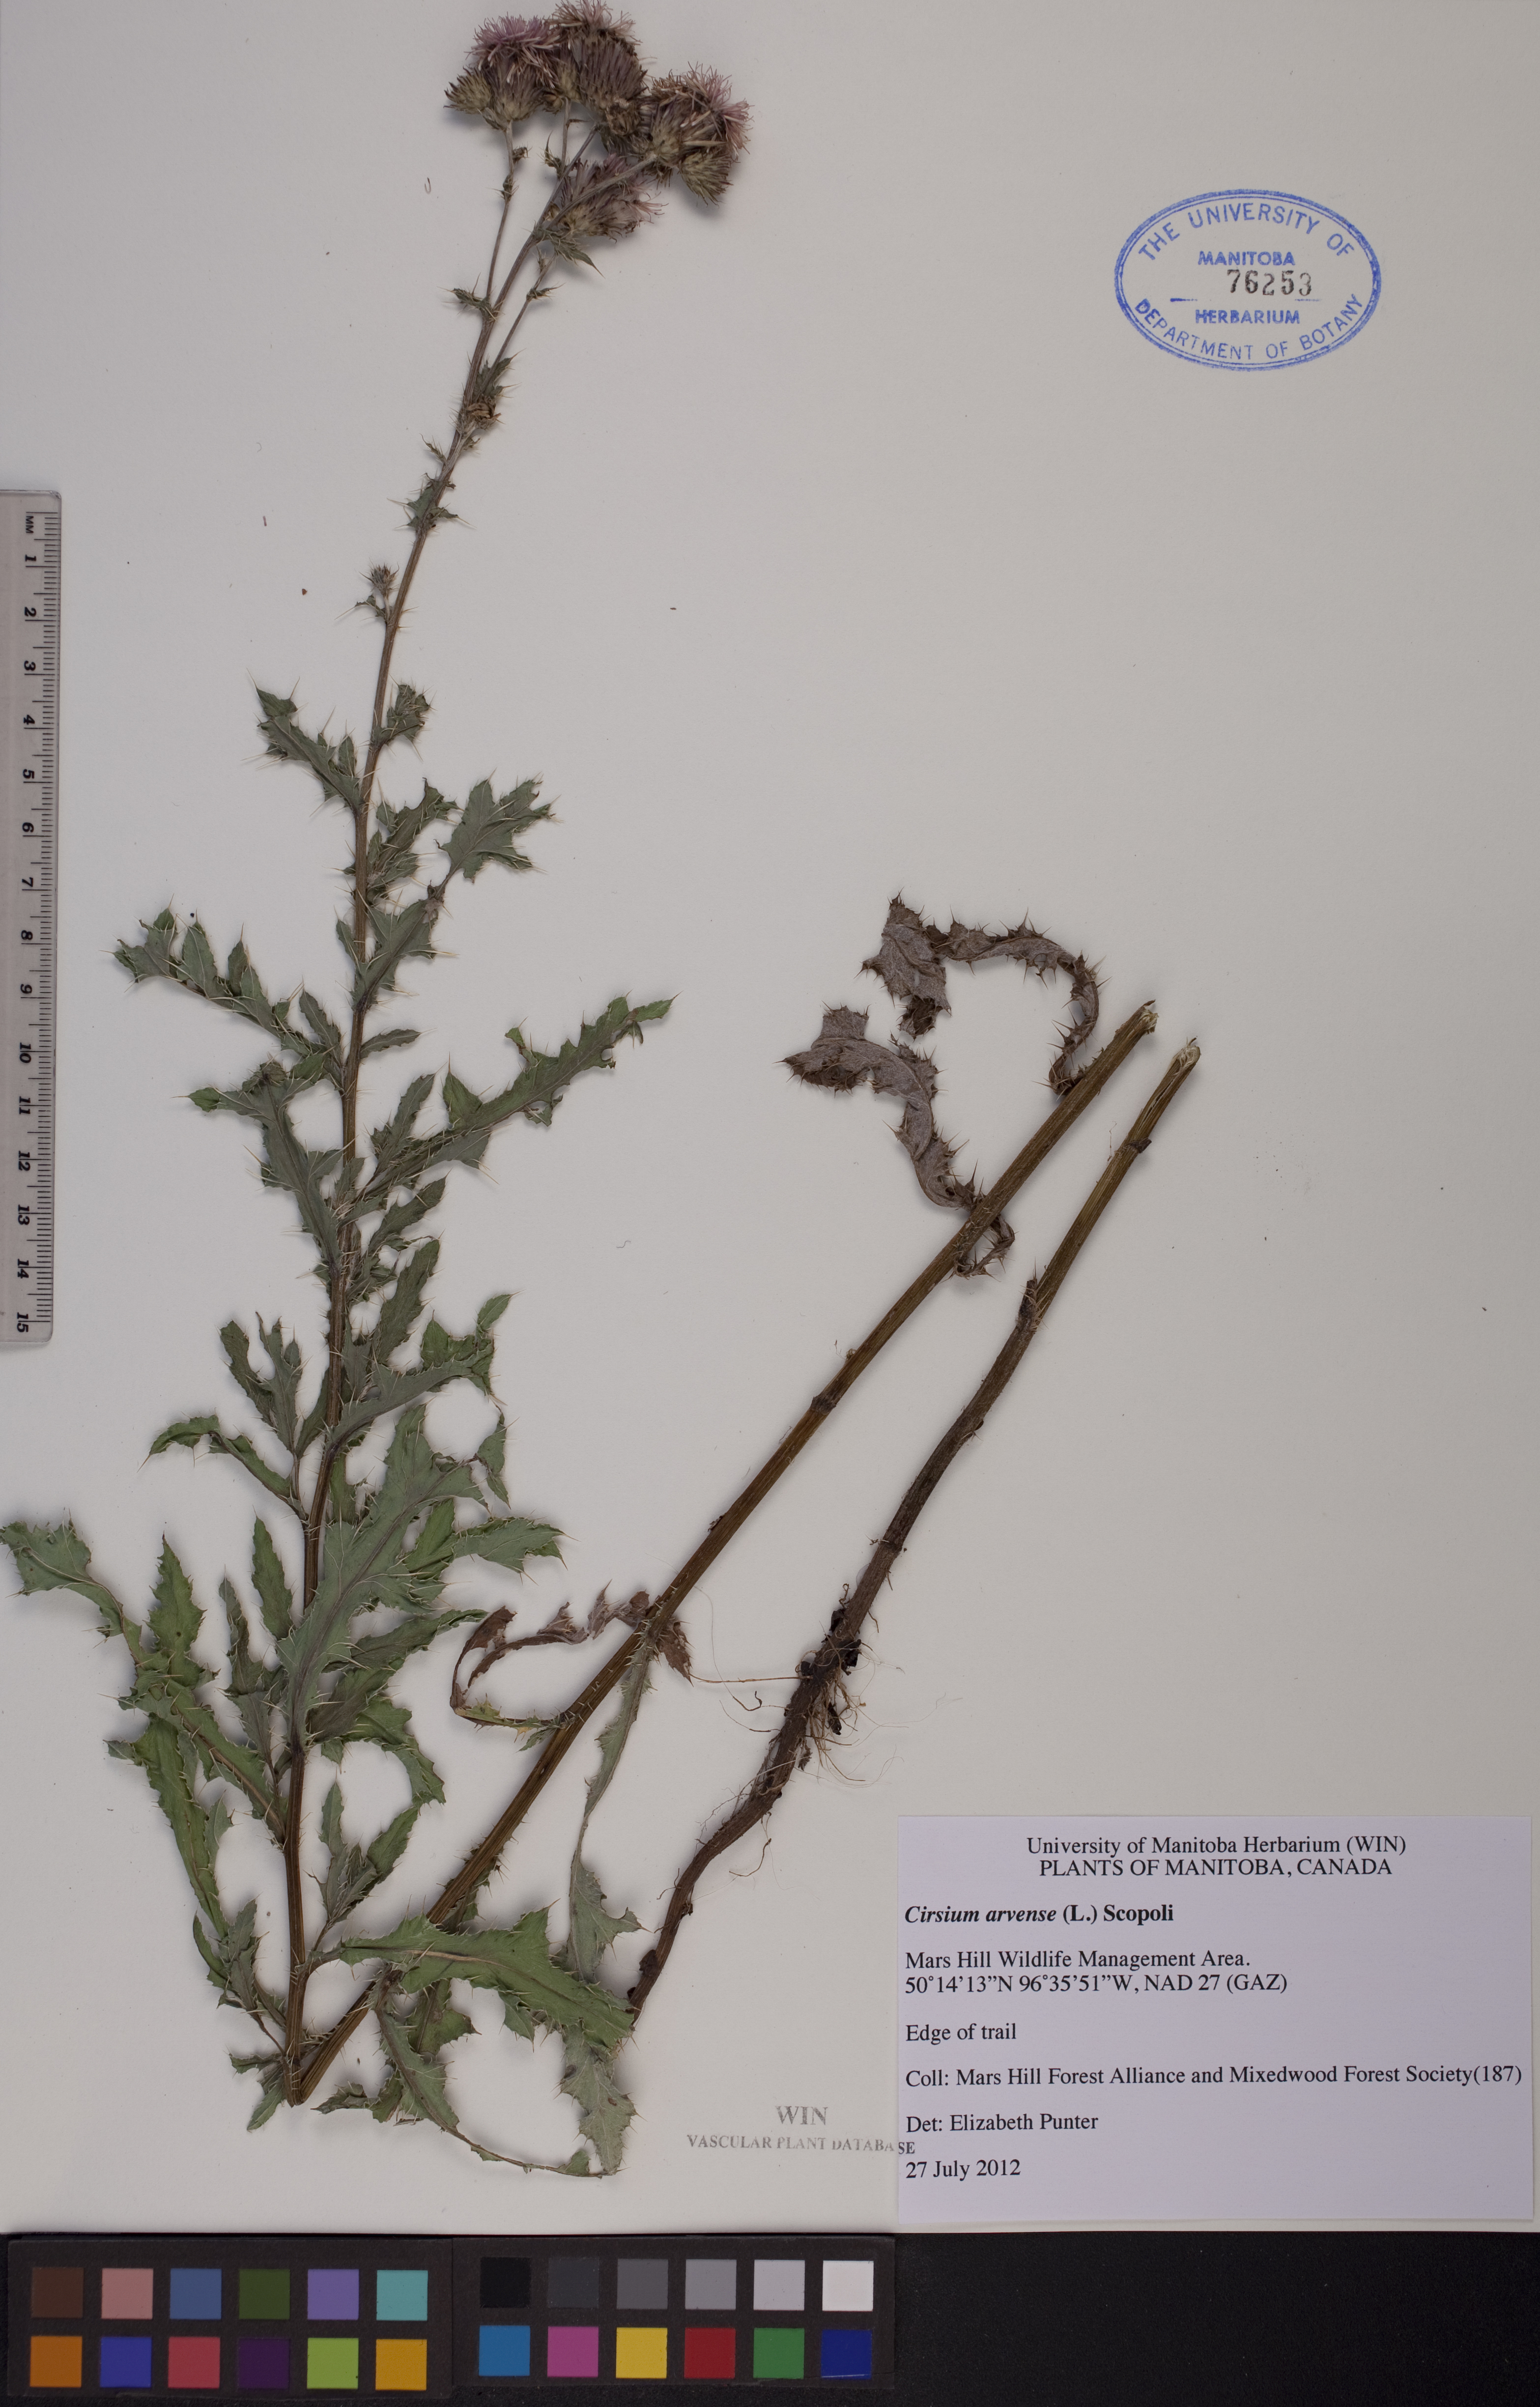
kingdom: Plantae
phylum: Tracheophyta
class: Magnoliopsida
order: Asterales
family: Asteraceae
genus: Cirsium
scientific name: Cirsium arvense
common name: Creeping thistle
